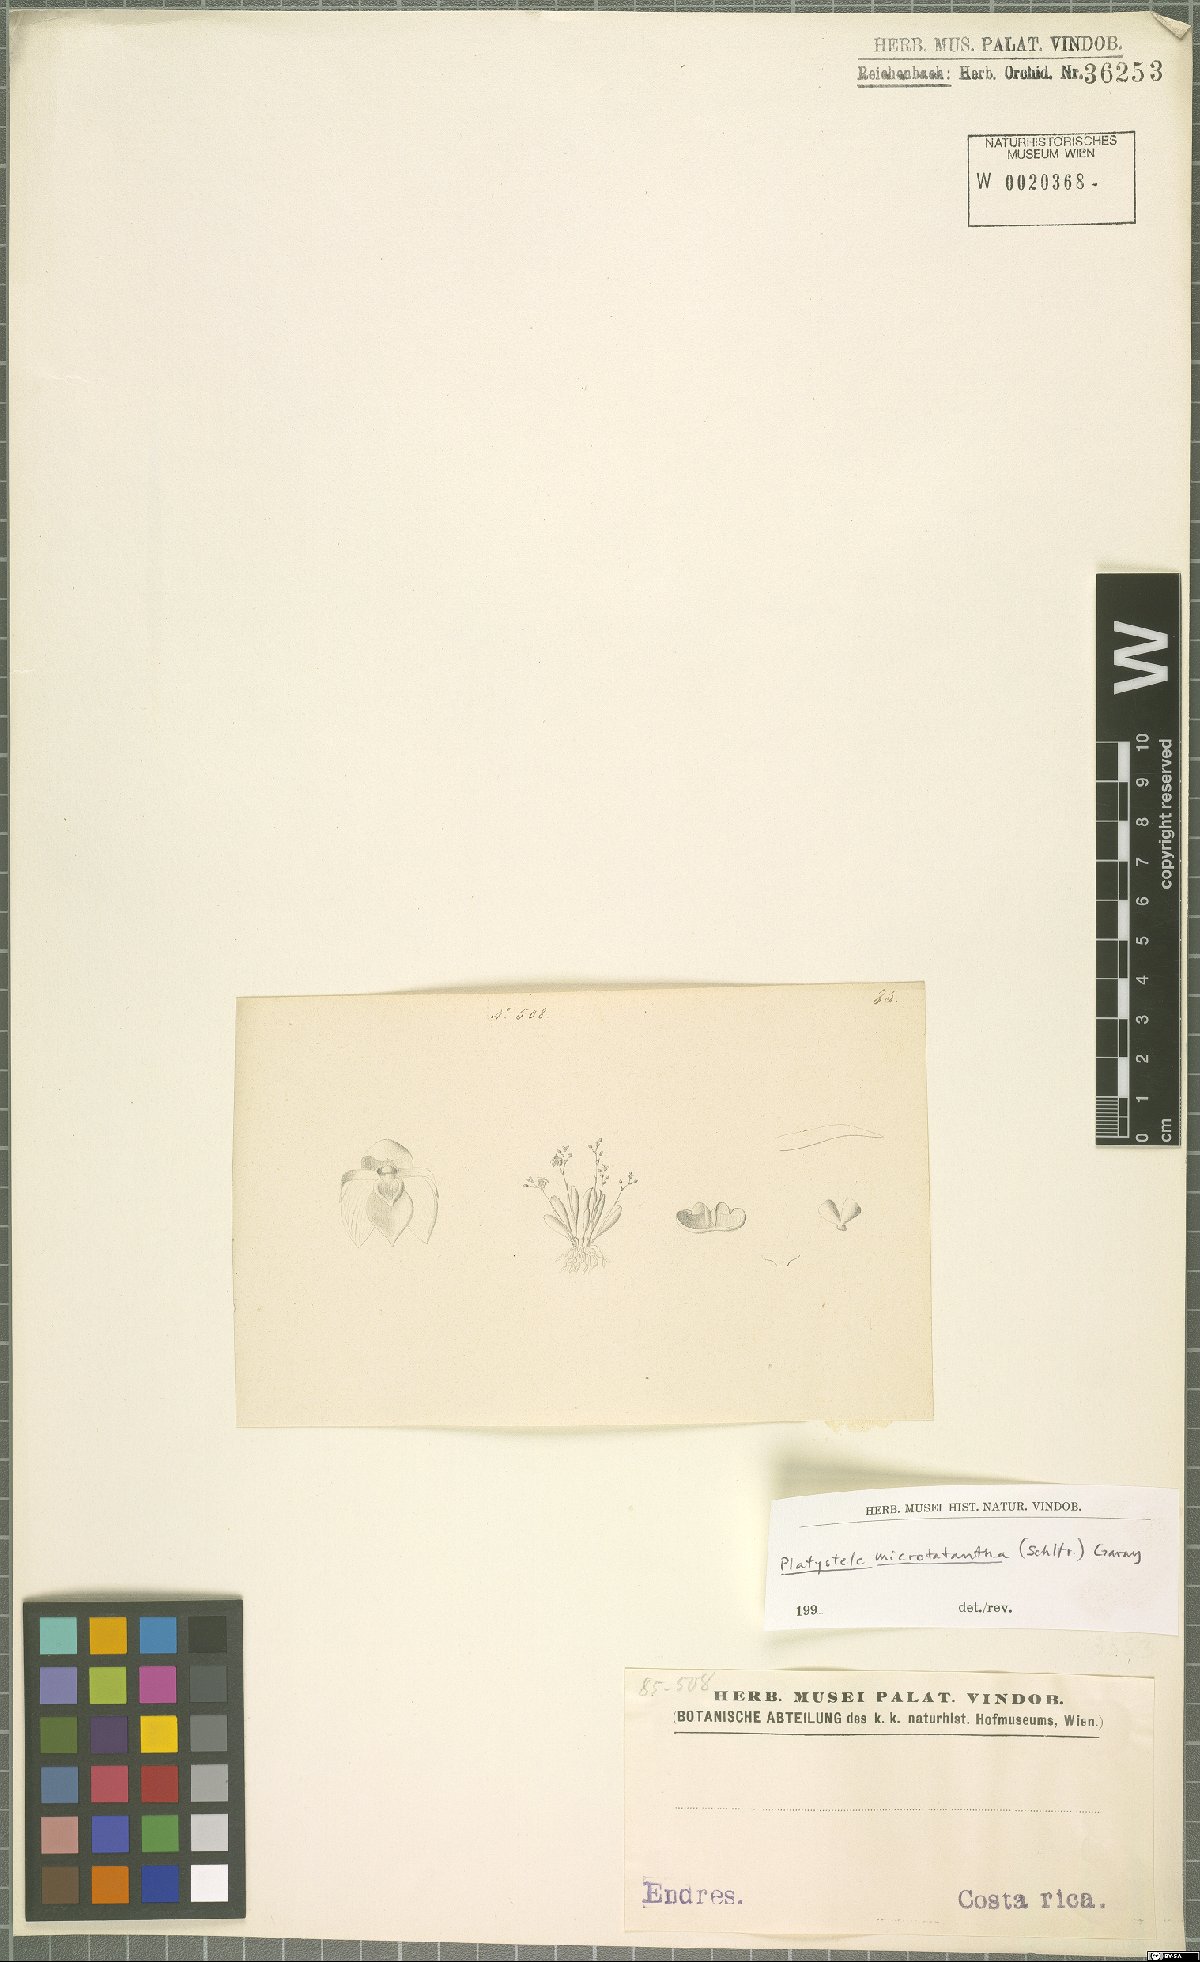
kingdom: Plantae
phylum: Tracheophyta
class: Liliopsida
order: Asparagales
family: Orchidaceae
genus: Platystele
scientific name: Platystele microtatantha
